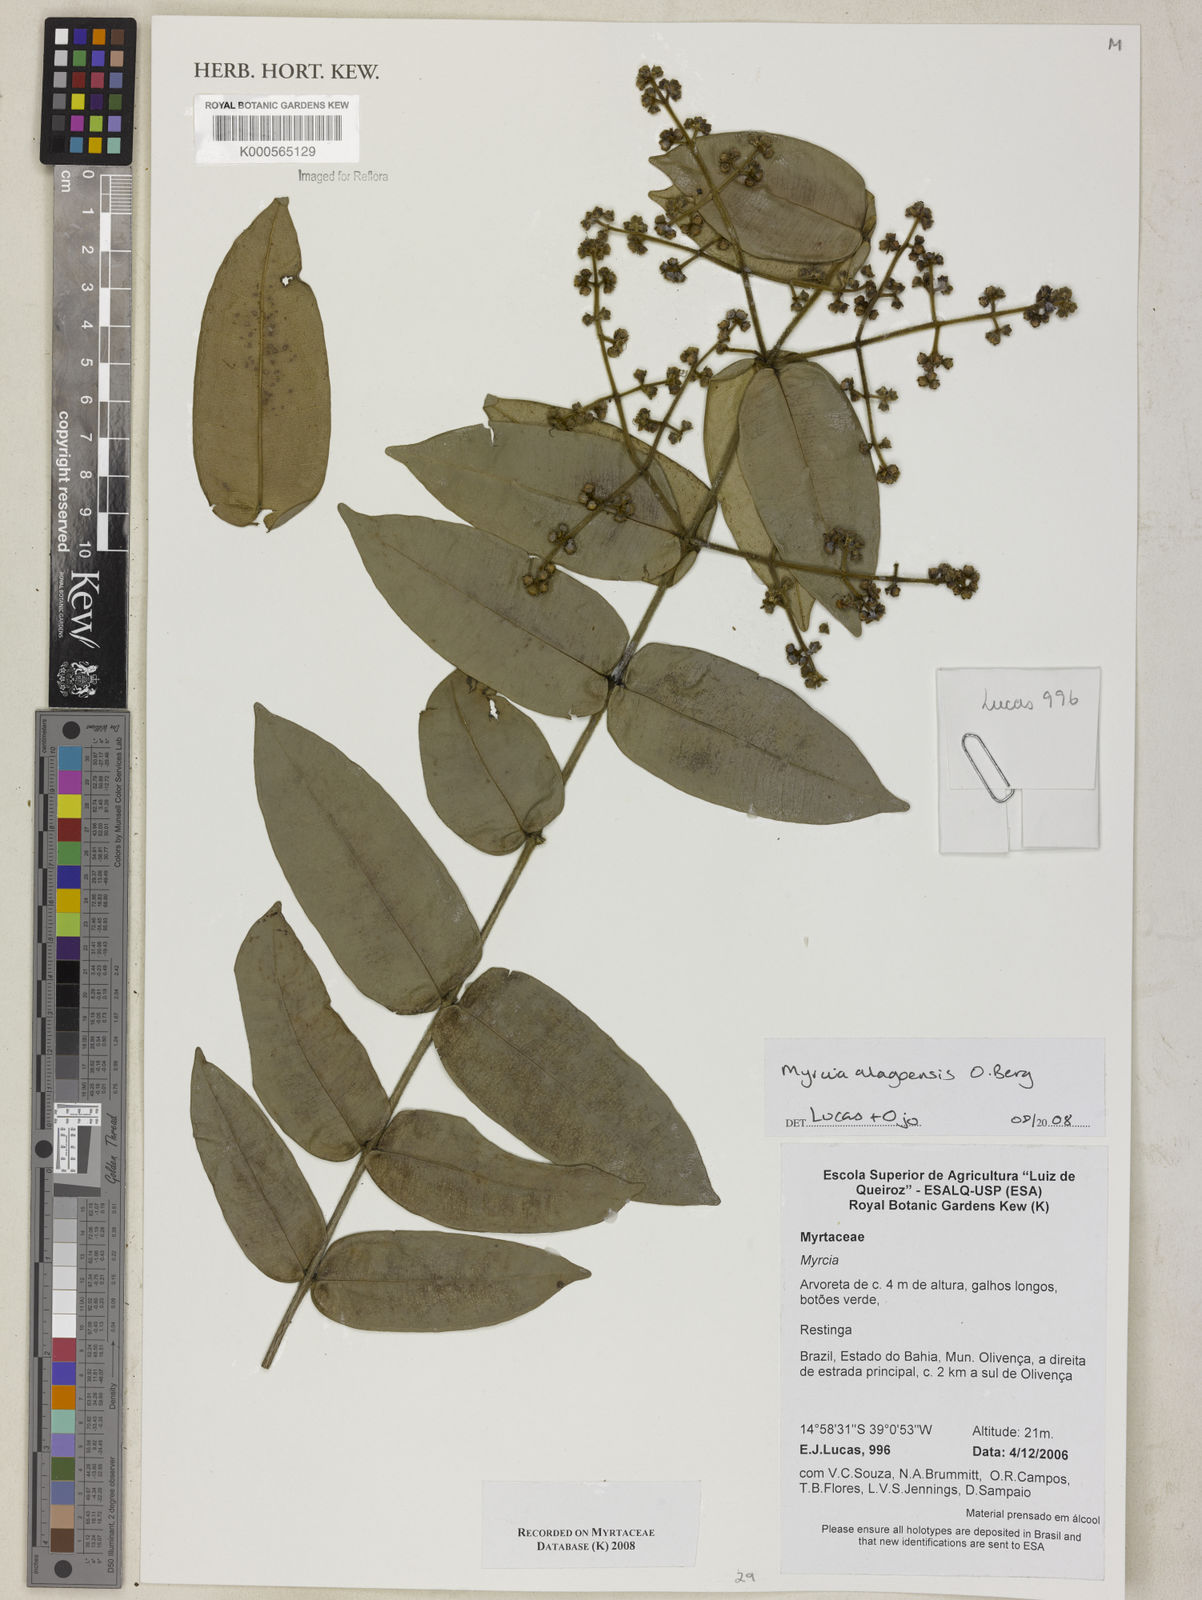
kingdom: Plantae
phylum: Tracheophyta
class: Magnoliopsida
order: Myrtales
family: Myrtaceae
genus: Myrcia
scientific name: Myrcia splendens
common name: Surinam cherry
